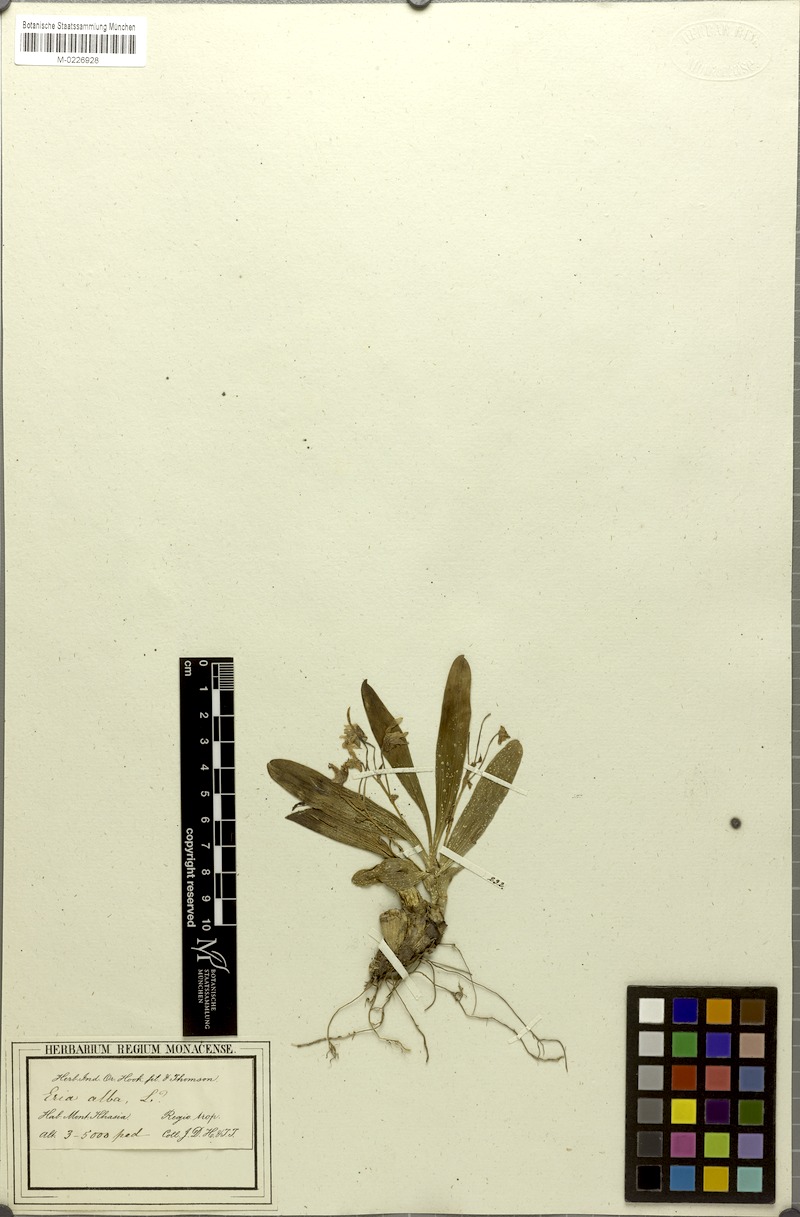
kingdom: Plantae
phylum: Tracheophyta
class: Liliopsida
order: Asparagales
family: Orchidaceae
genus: Pinalia
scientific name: Pinalia leucantha
